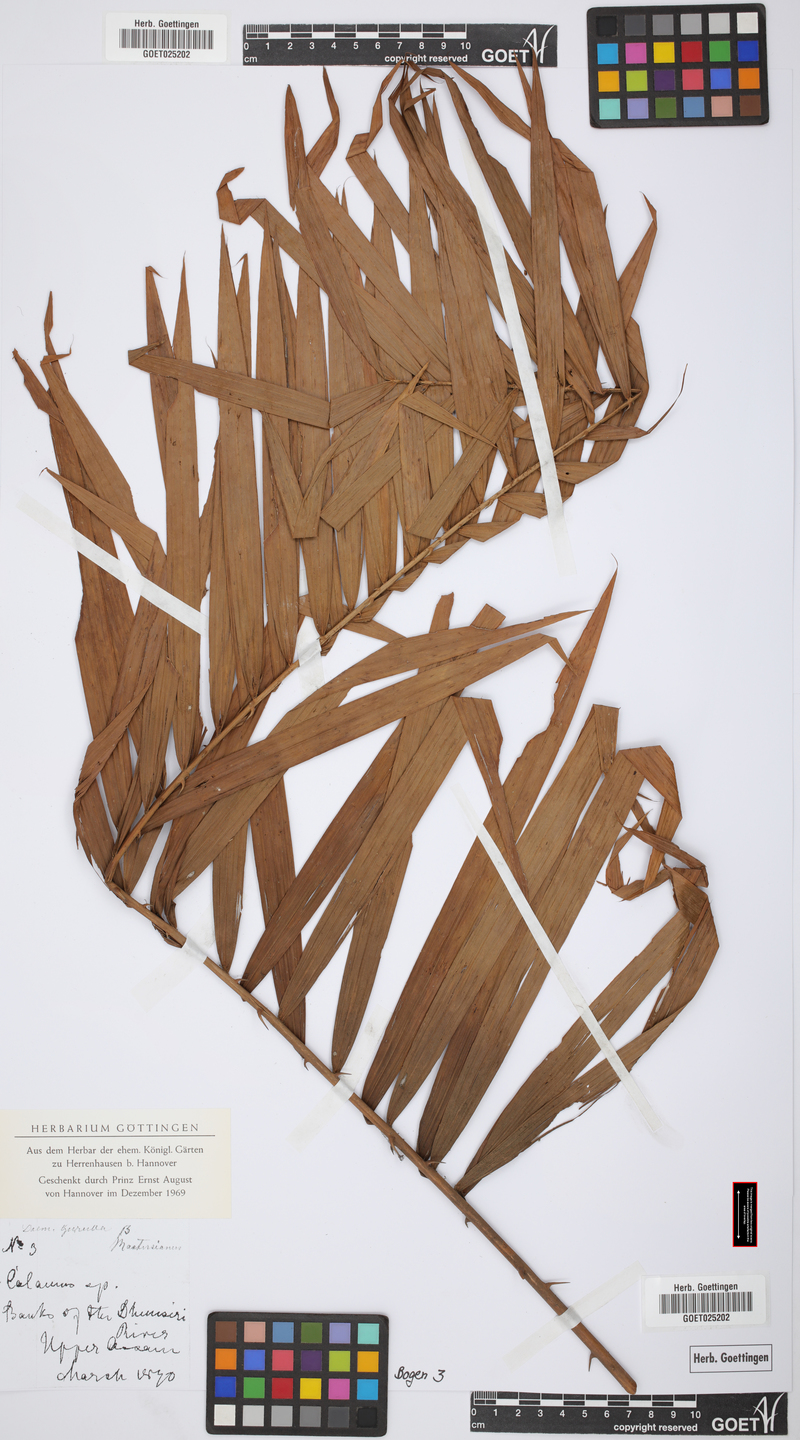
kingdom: Plantae
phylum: Tracheophyta
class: Liliopsida
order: Arecales
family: Arecaceae
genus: Calamus
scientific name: Calamus guruba
